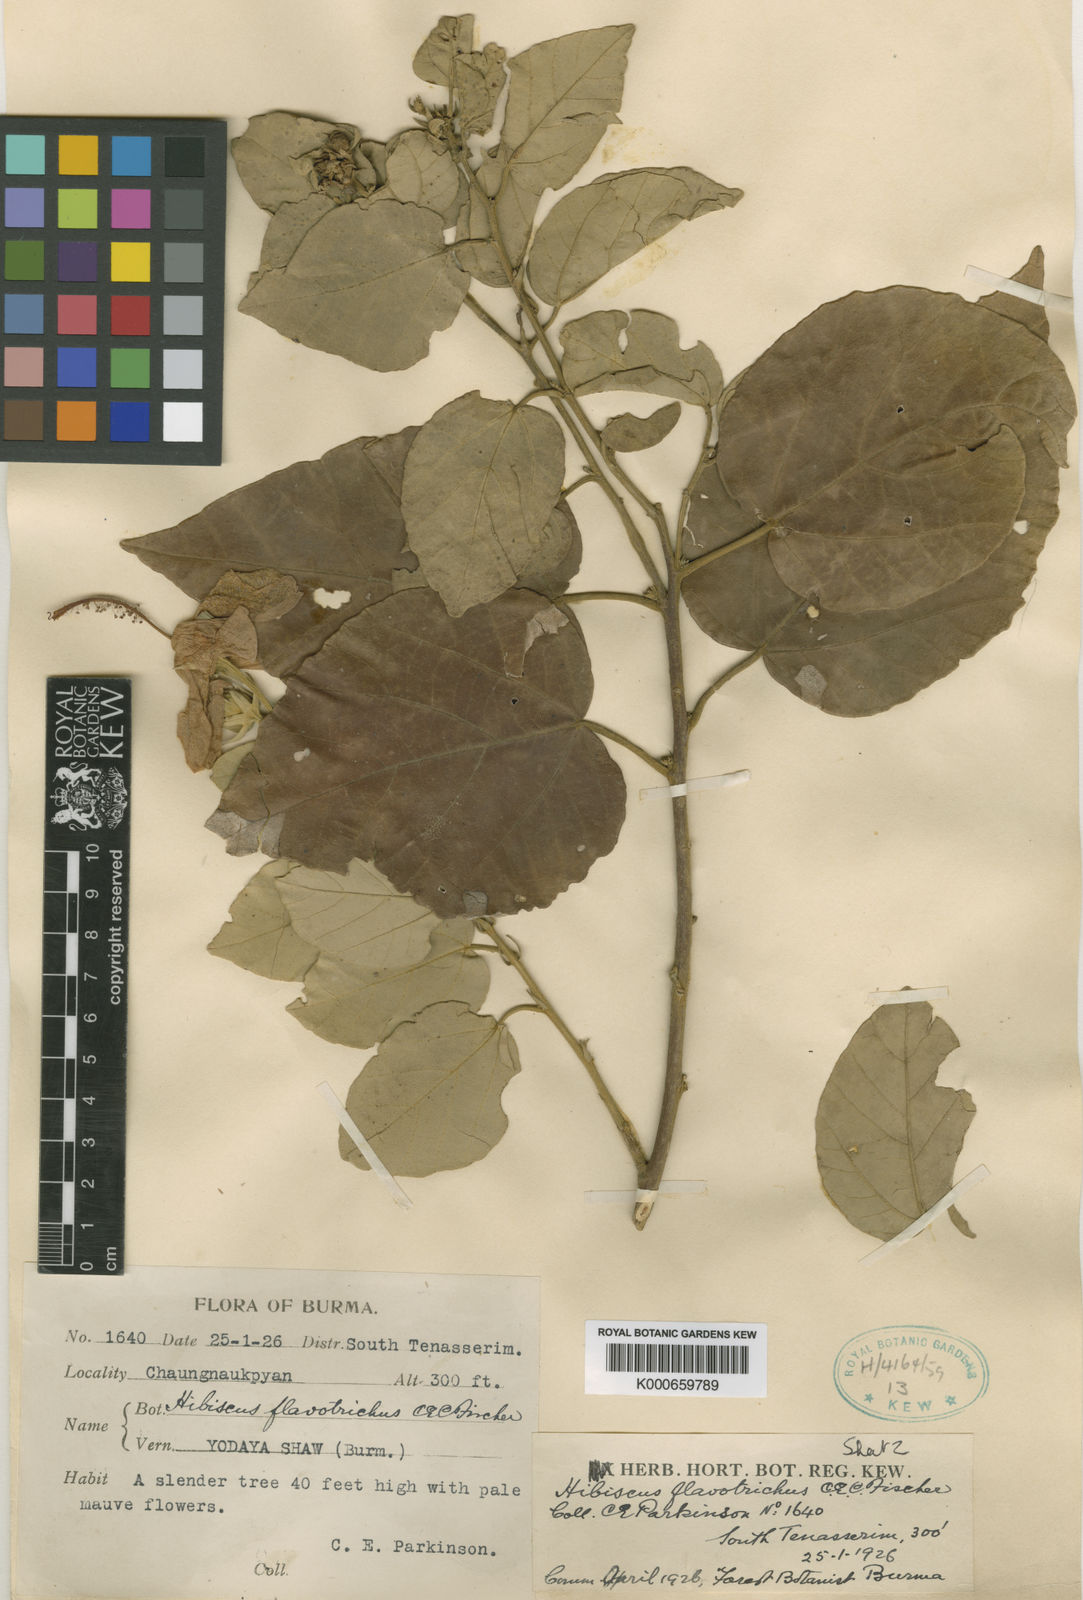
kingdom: Plantae
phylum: Tracheophyta
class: Magnoliopsida
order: Malvales
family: Malvaceae
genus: Hibiscus
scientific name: Hibiscus decaspermus
